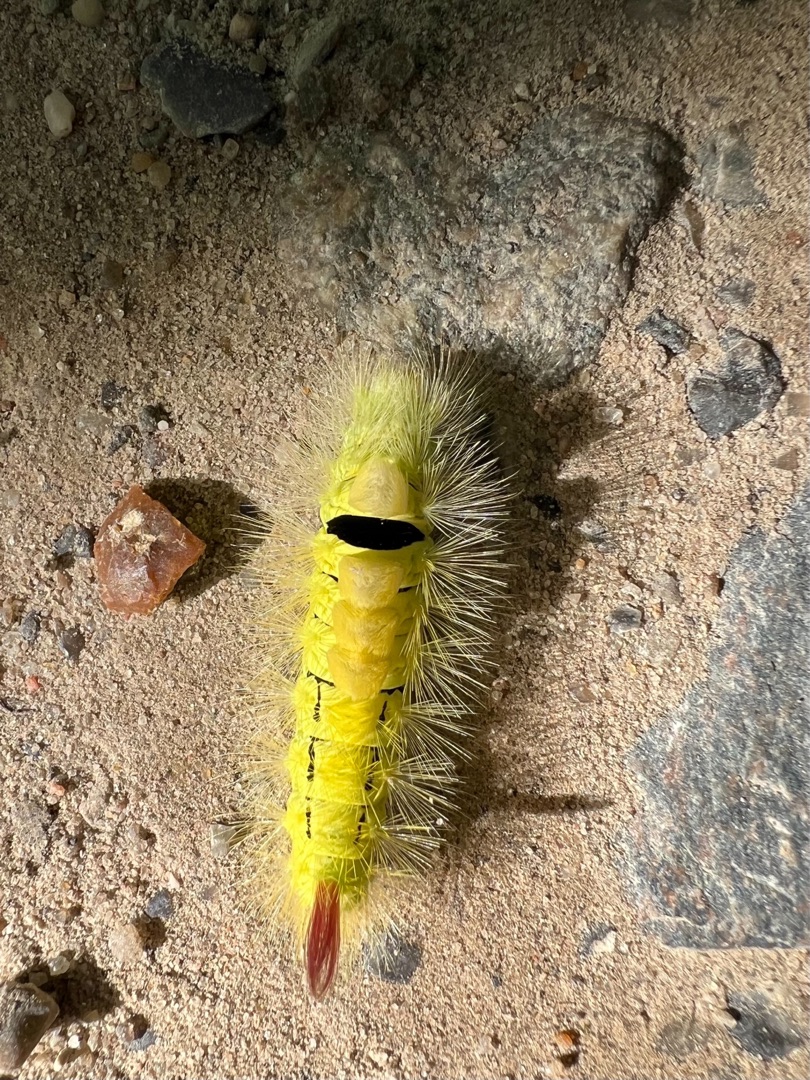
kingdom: Animalia
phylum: Arthropoda
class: Insecta
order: Lepidoptera
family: Erebidae
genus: Calliteara
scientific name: Calliteara pudibunda
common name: Bøgenonne
